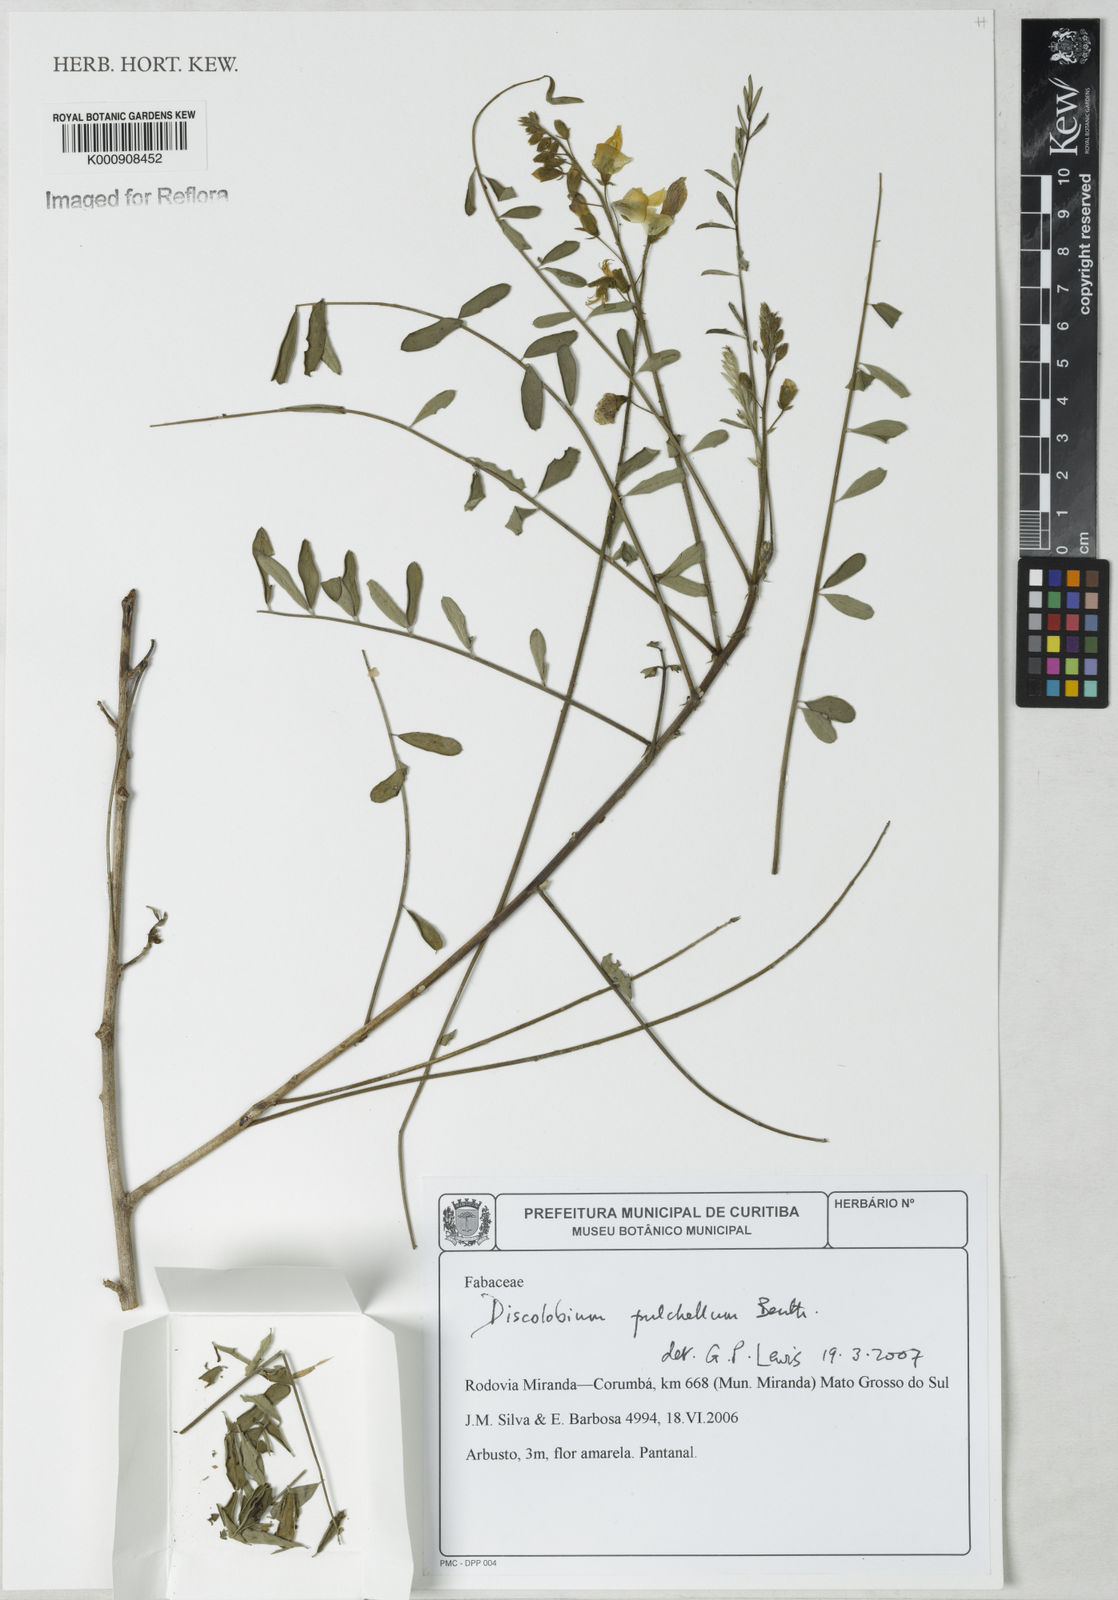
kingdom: Plantae
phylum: Tracheophyta
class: Magnoliopsida
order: Fabales
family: Fabaceae
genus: Discolobium
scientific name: Discolobium pulchellum
